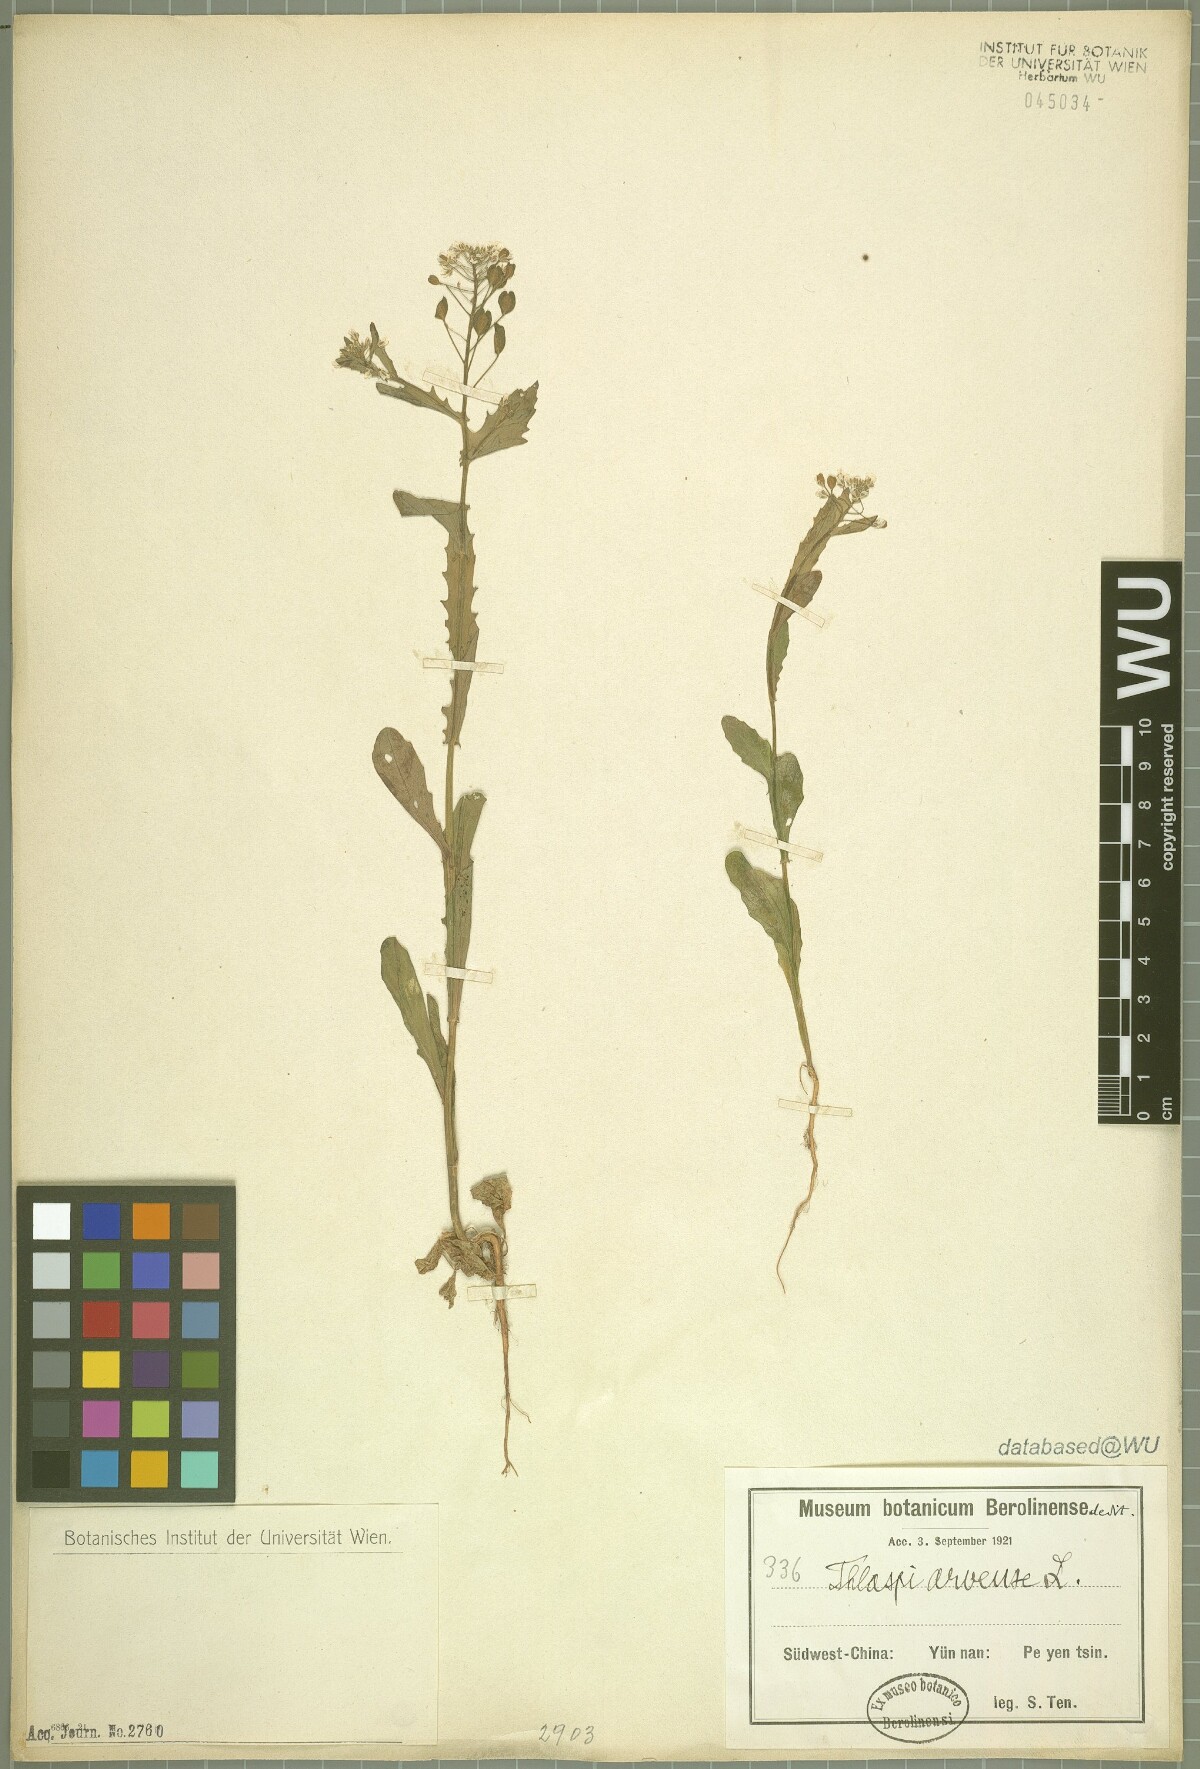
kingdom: Plantae
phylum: Tracheophyta
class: Magnoliopsida
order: Brassicales
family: Brassicaceae
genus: Thlaspi
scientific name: Thlaspi arvense
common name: Field pennycress
